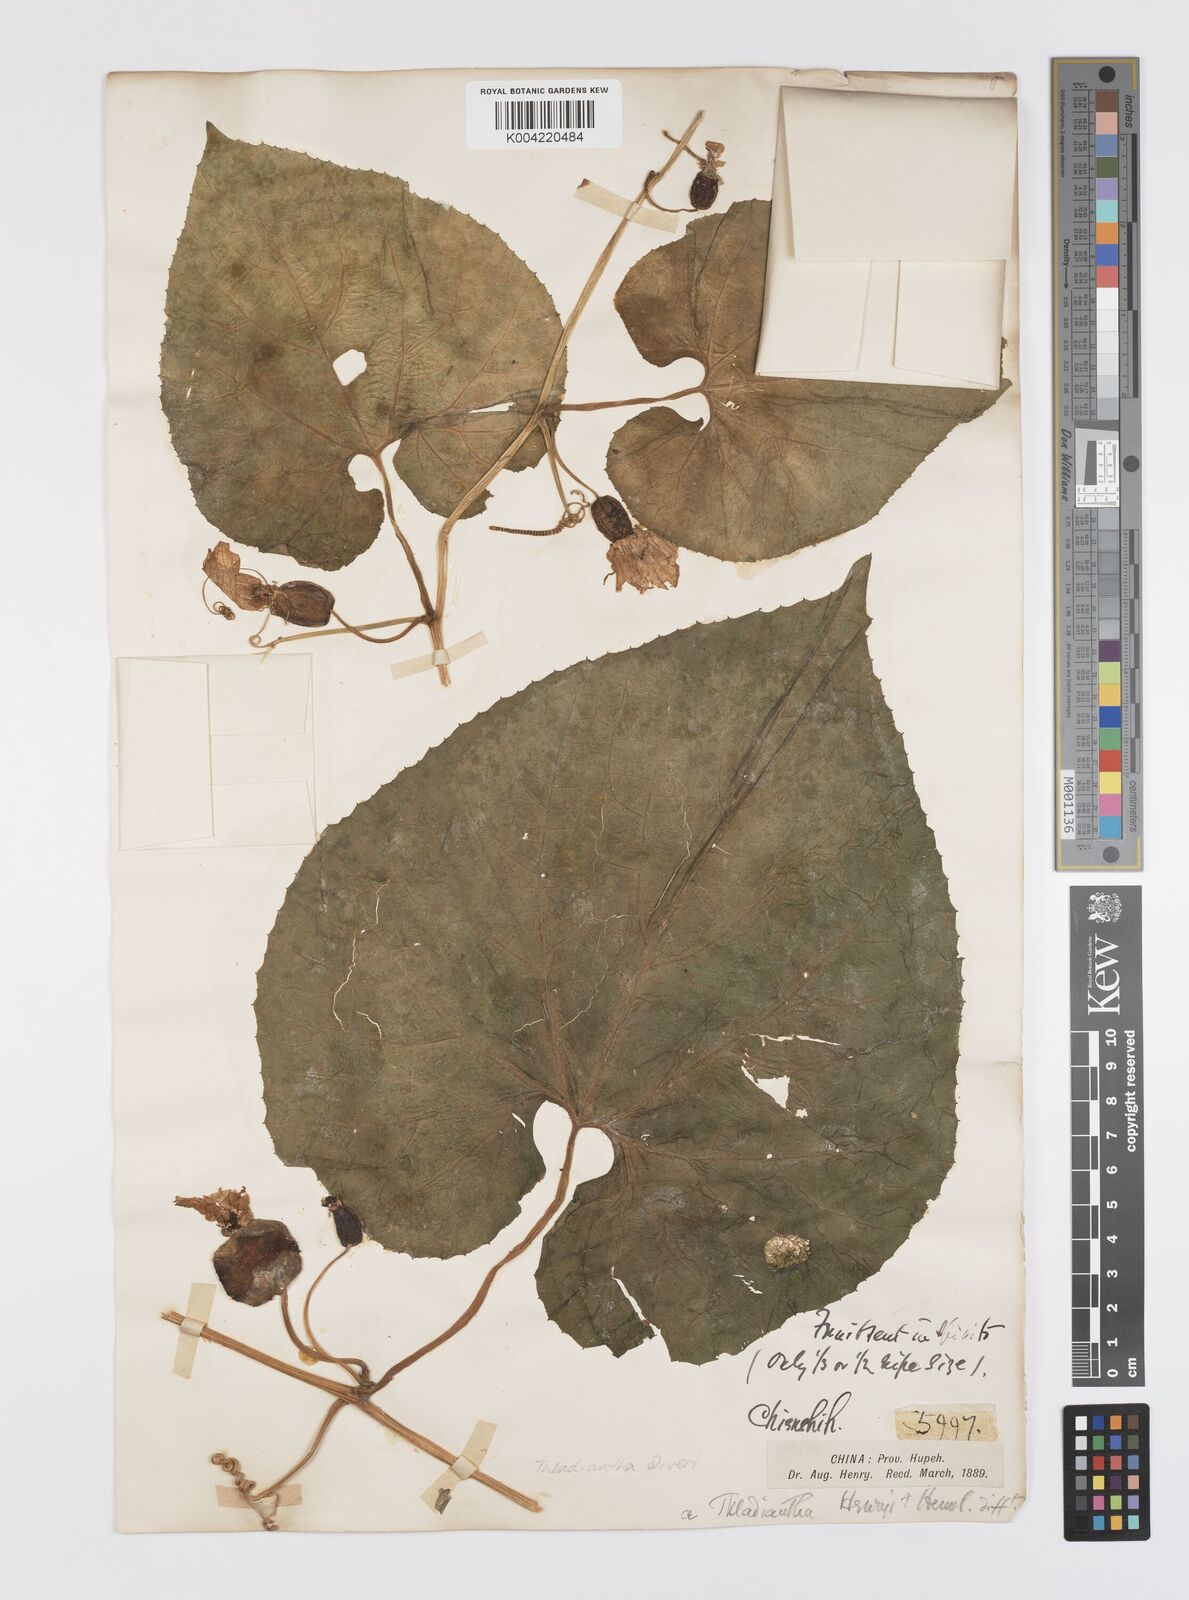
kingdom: Plantae
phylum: Tracheophyta
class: Magnoliopsida
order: Cucurbitales
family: Cucurbitaceae
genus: Thladiantha
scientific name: Thladiantha oliveri
